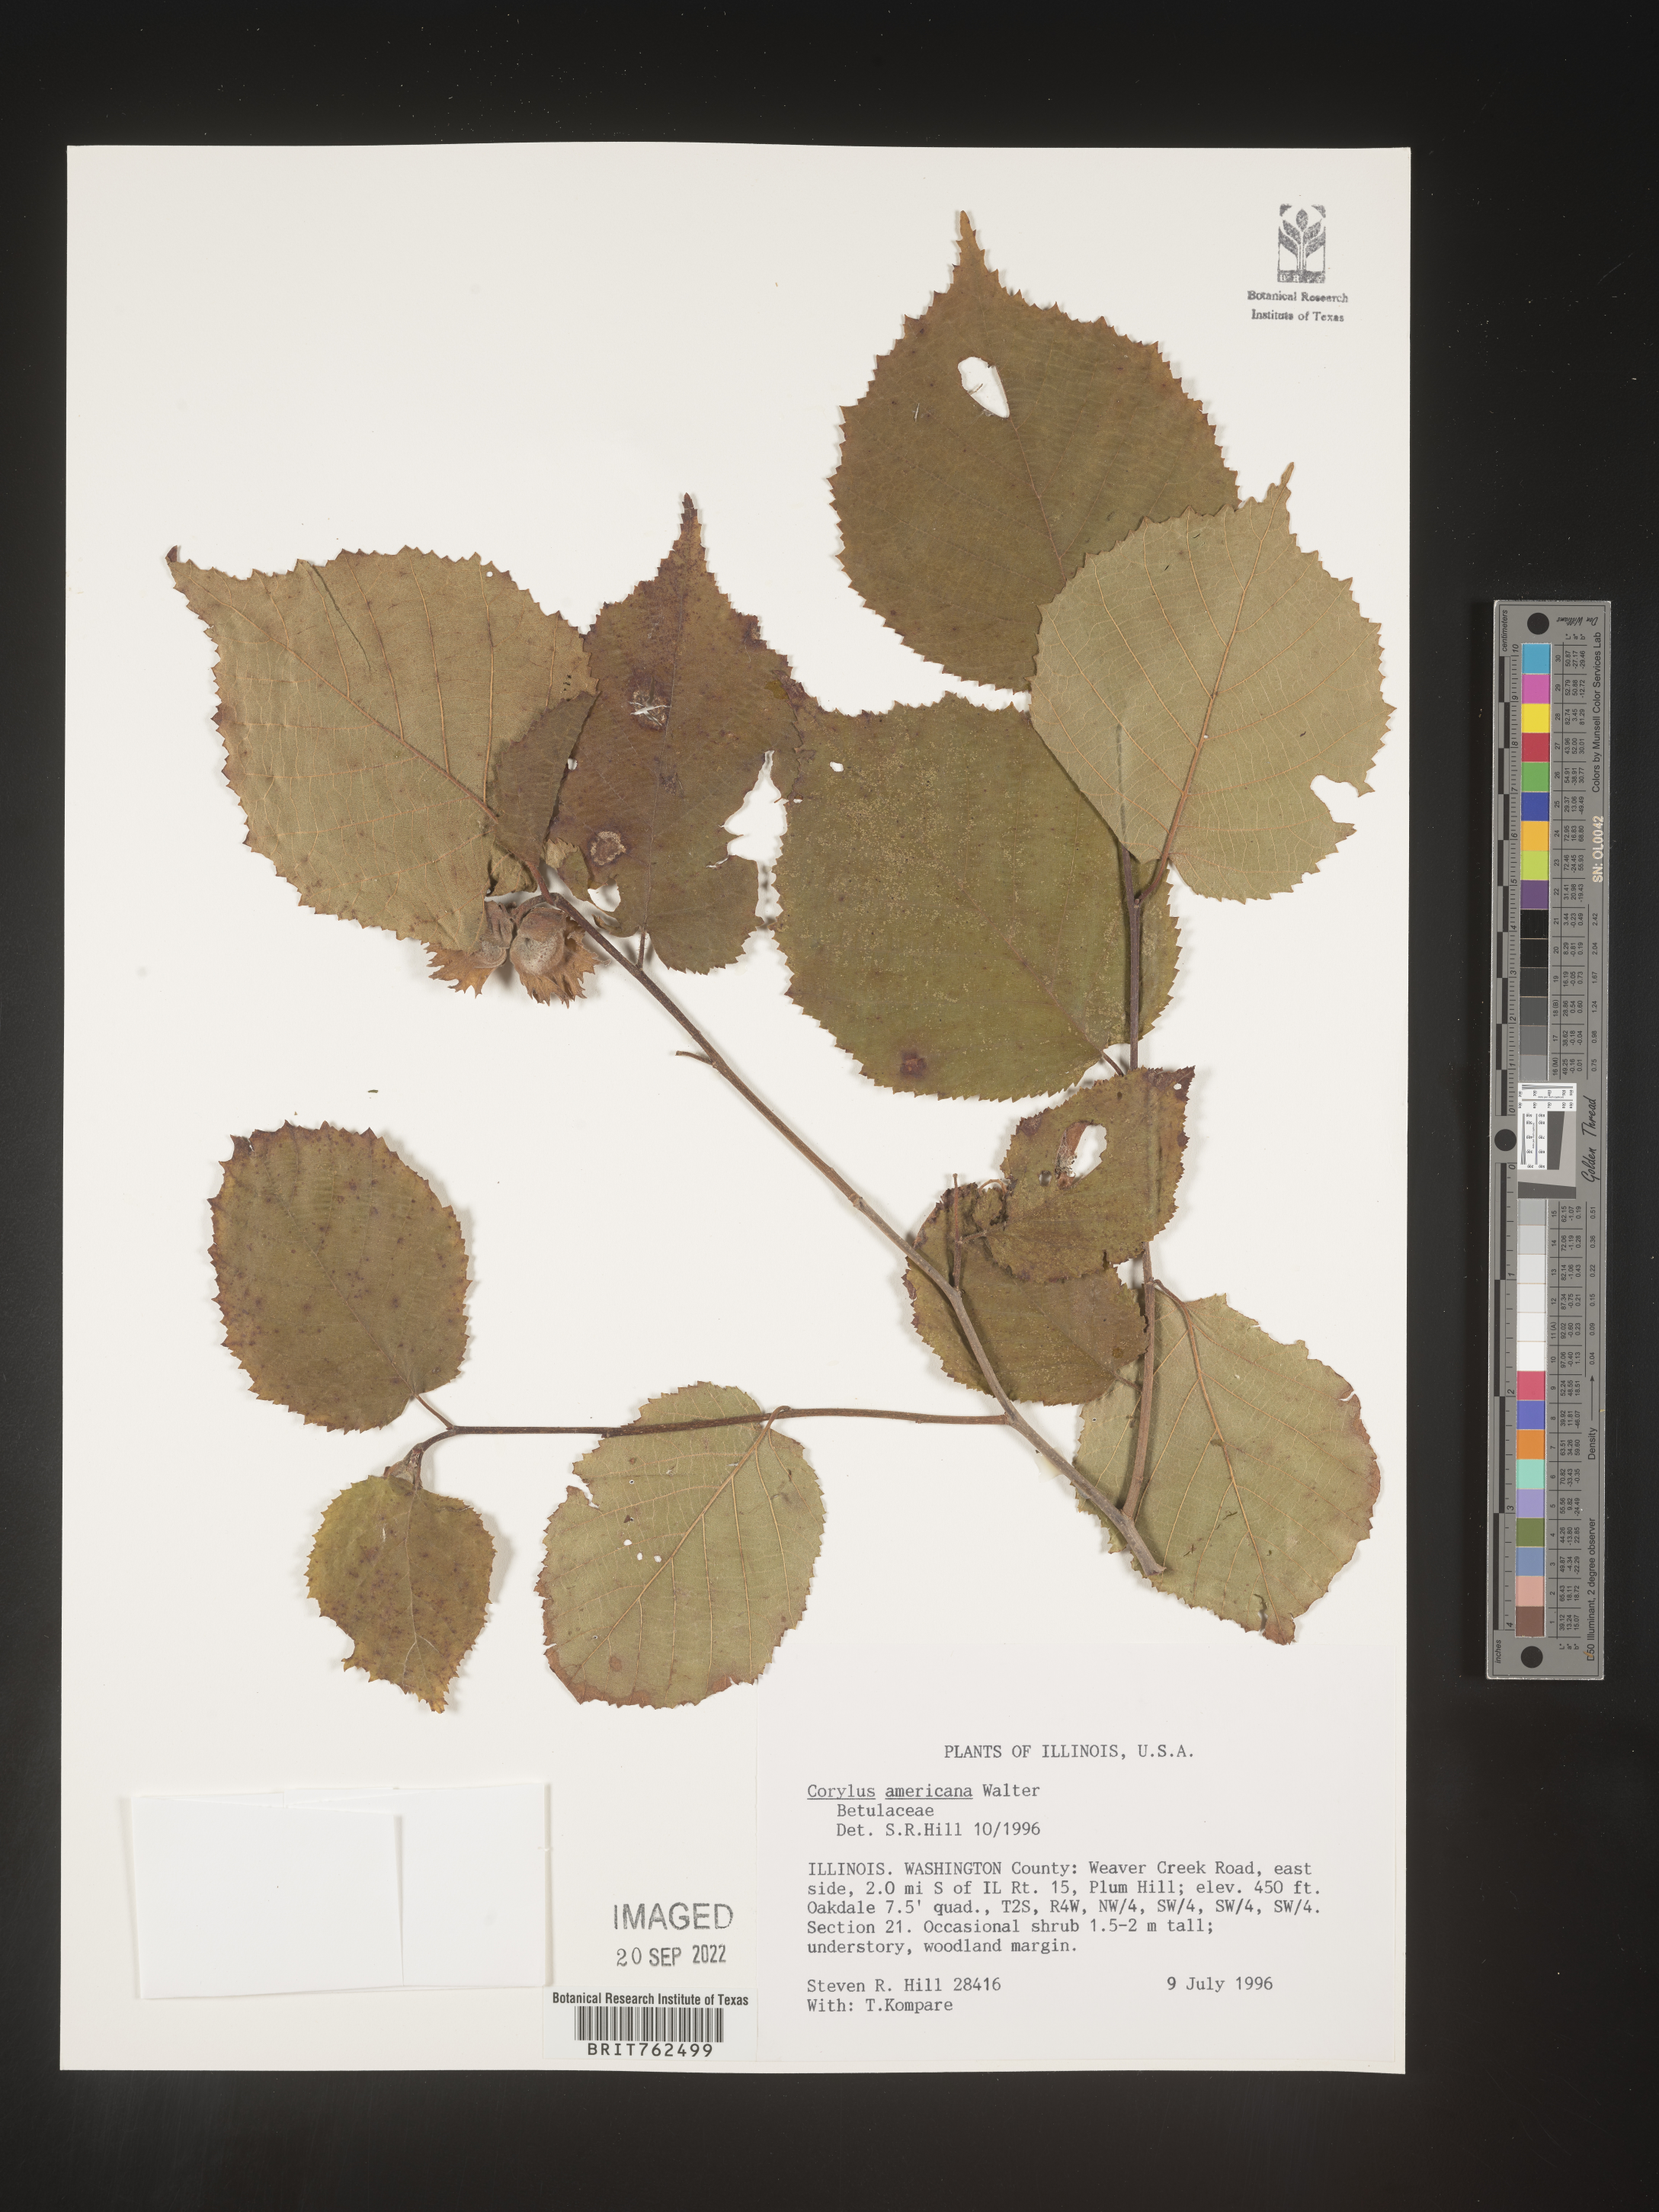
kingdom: Plantae
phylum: Tracheophyta
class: Magnoliopsida
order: Fagales
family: Betulaceae
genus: Corylus
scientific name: Corylus americana
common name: American hazel
